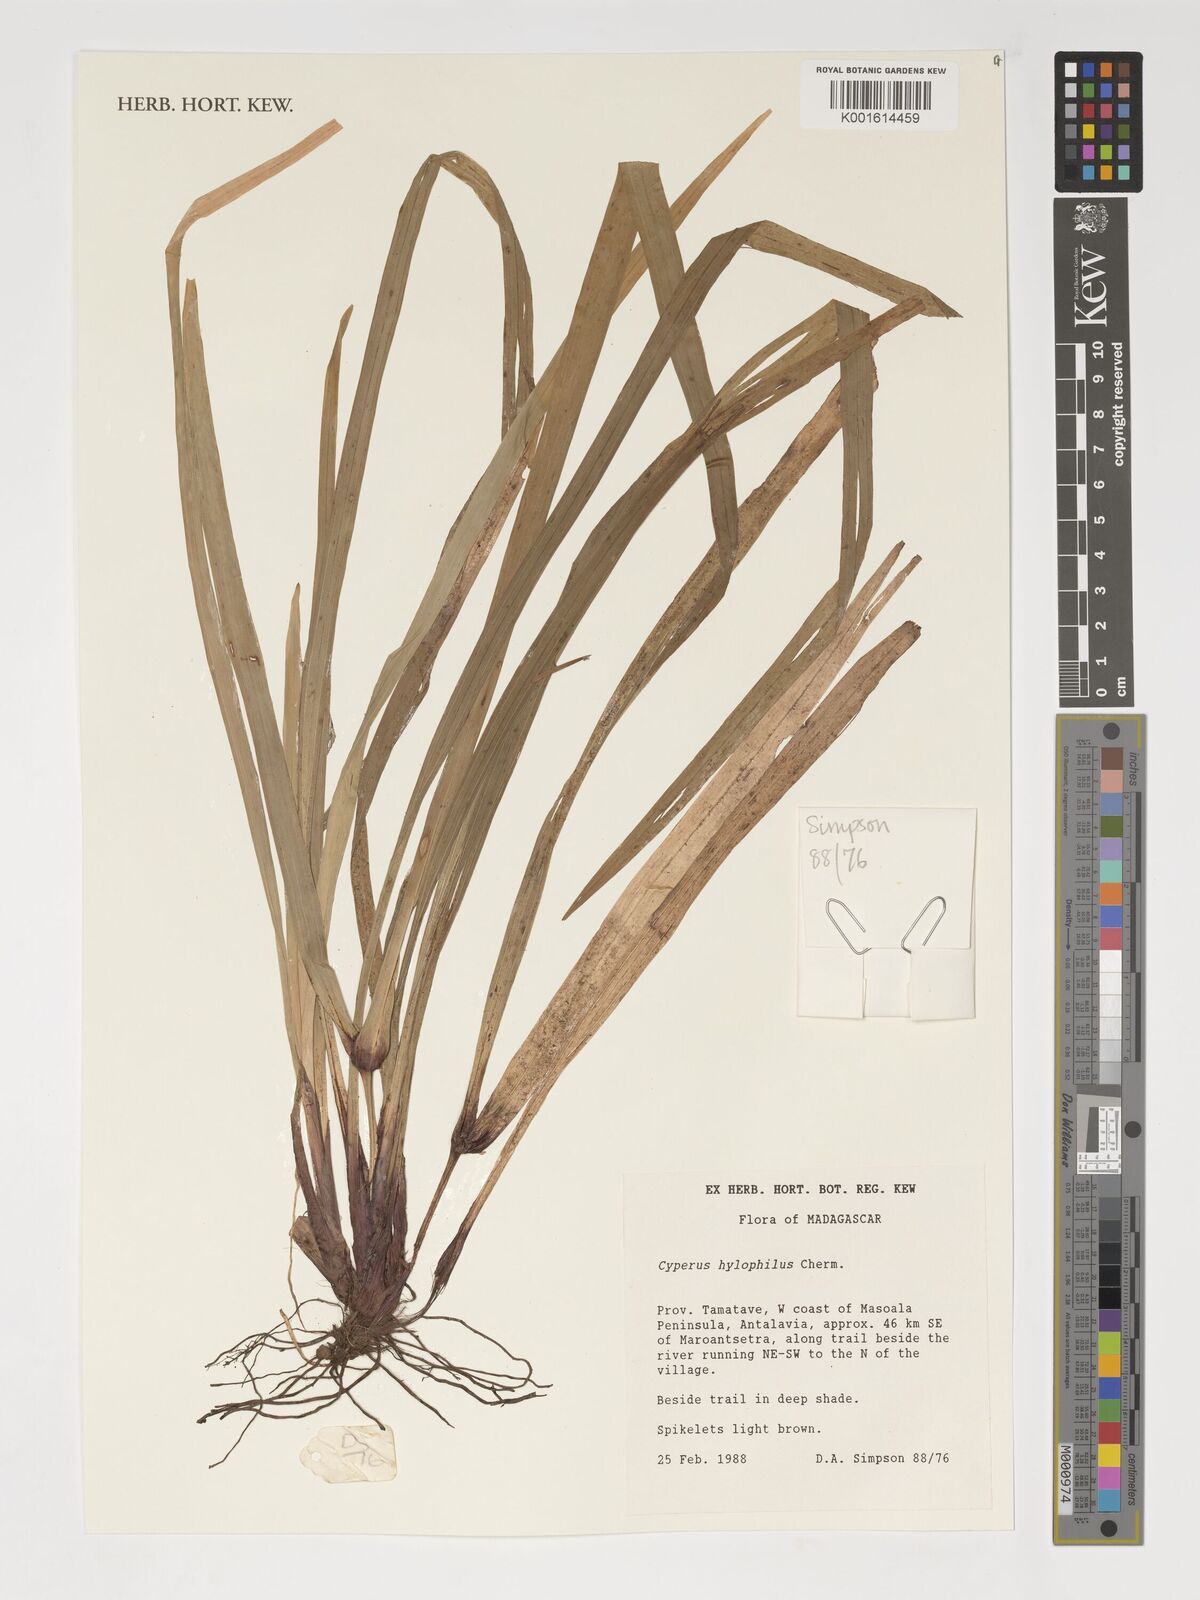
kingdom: Plantae
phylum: Tracheophyta
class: Liliopsida
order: Poales
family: Cyperaceae
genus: Cyperus
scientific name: Cyperus rufostriatus
